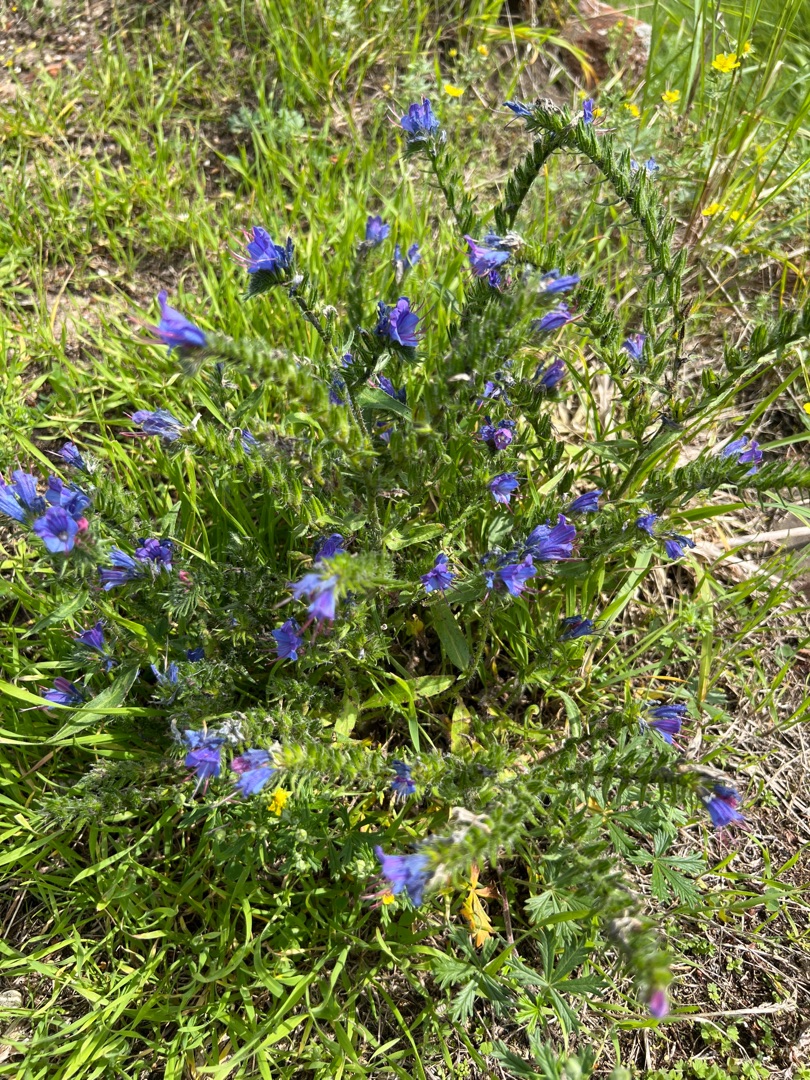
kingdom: Plantae
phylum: Tracheophyta
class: Magnoliopsida
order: Boraginales
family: Boraginaceae
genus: Echium
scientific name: Echium vulgare
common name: Slangehoved
